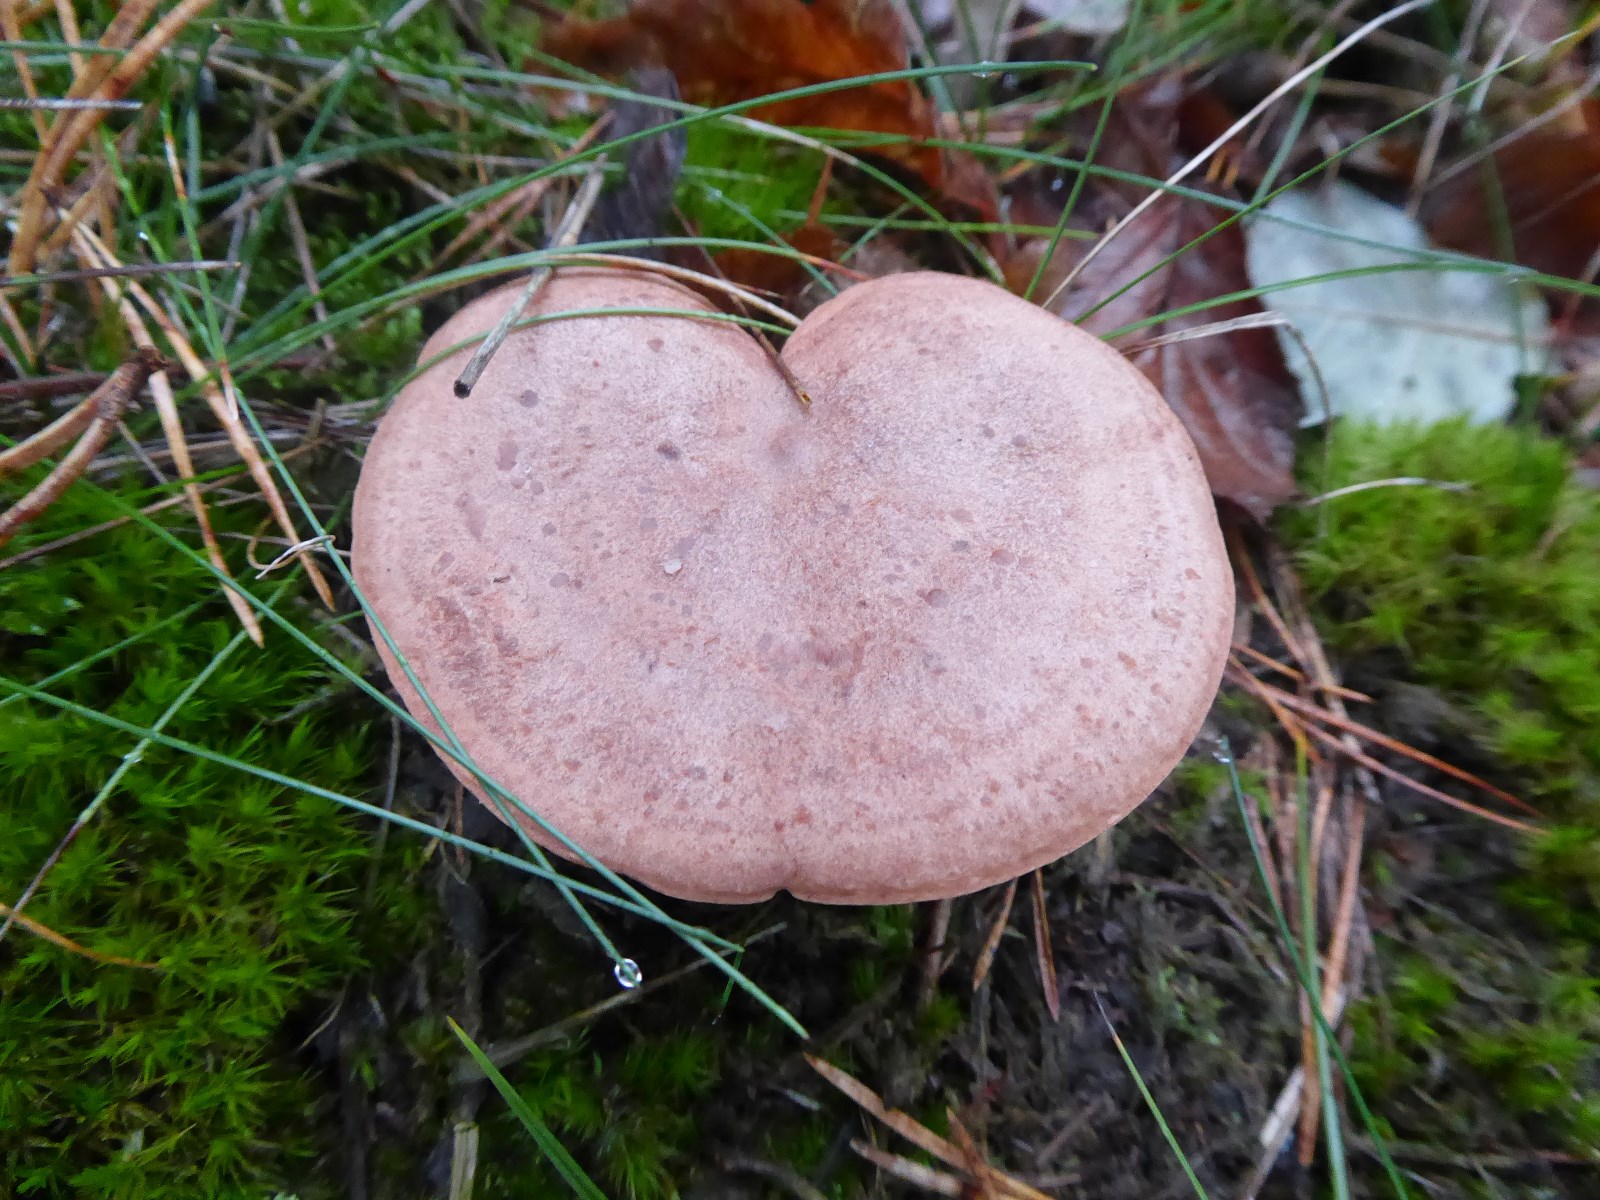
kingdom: Fungi
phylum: Basidiomycota
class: Agaricomycetes
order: Russulales
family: Russulaceae
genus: Lactarius
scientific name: Lactarius quietus
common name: ege-mælkehat
